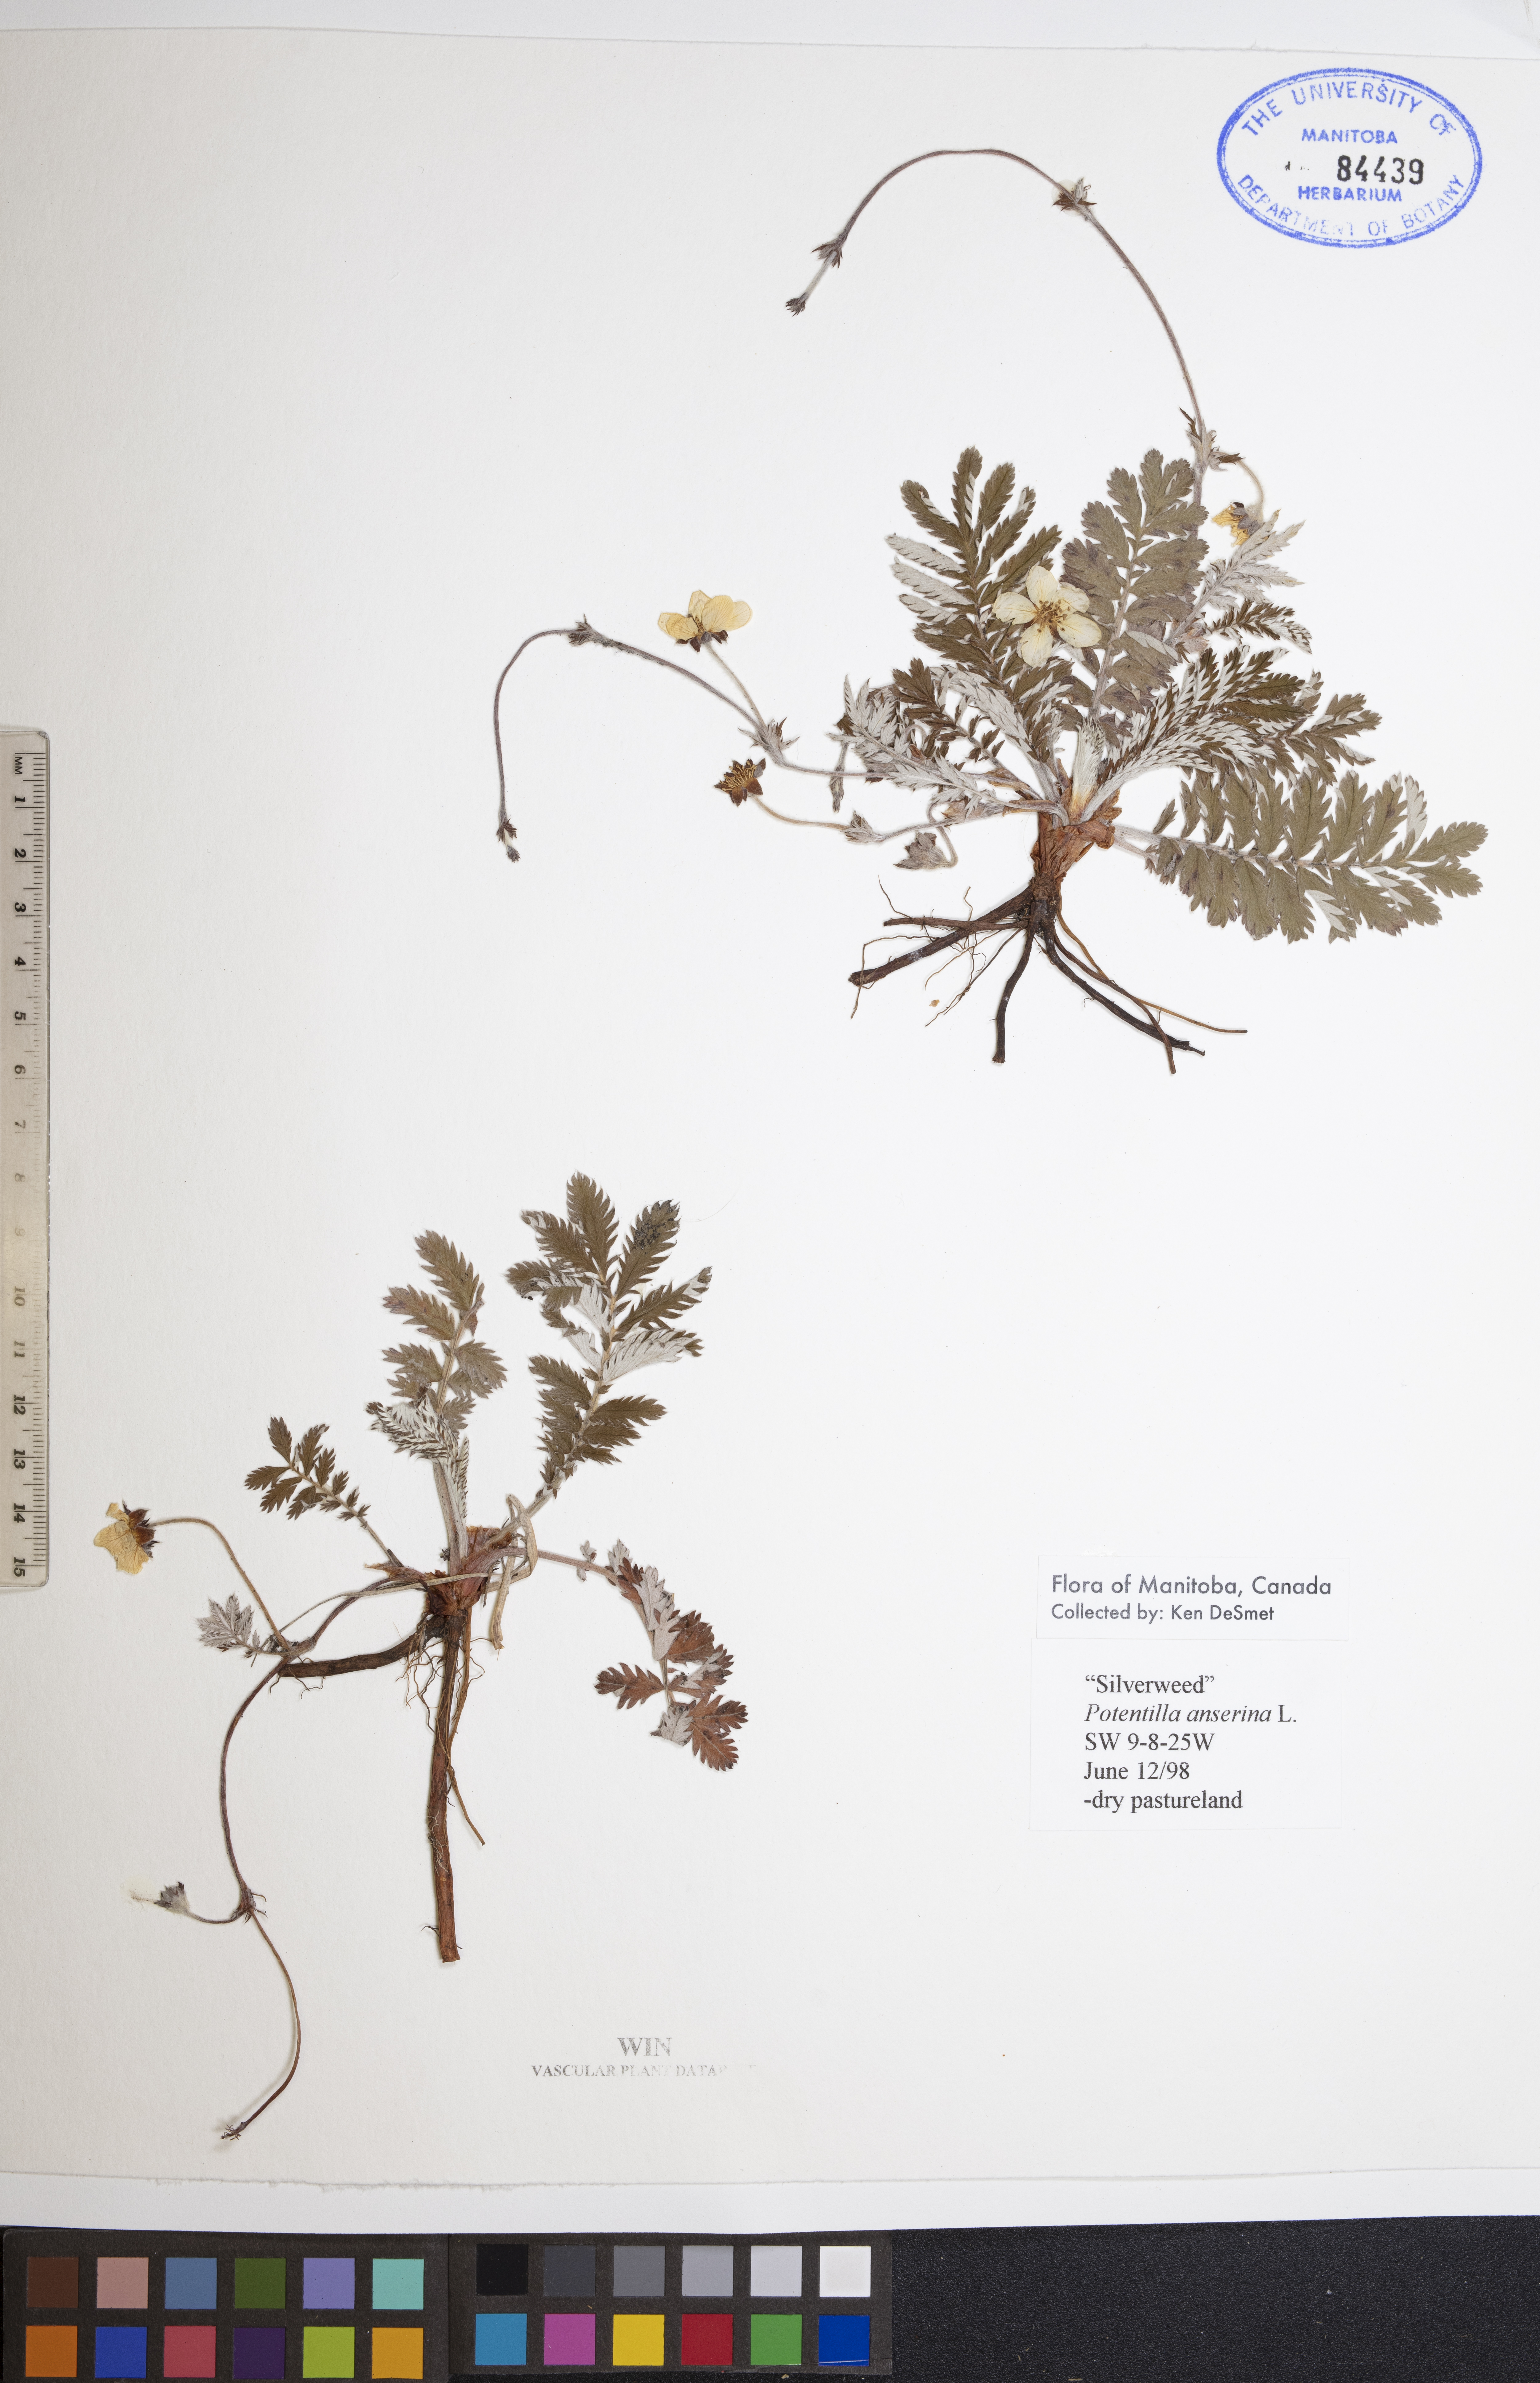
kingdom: Plantae
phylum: Tracheophyta
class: Magnoliopsida
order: Rosales
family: Rosaceae
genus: Argentina
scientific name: Argentina anserina
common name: Common silverweed
